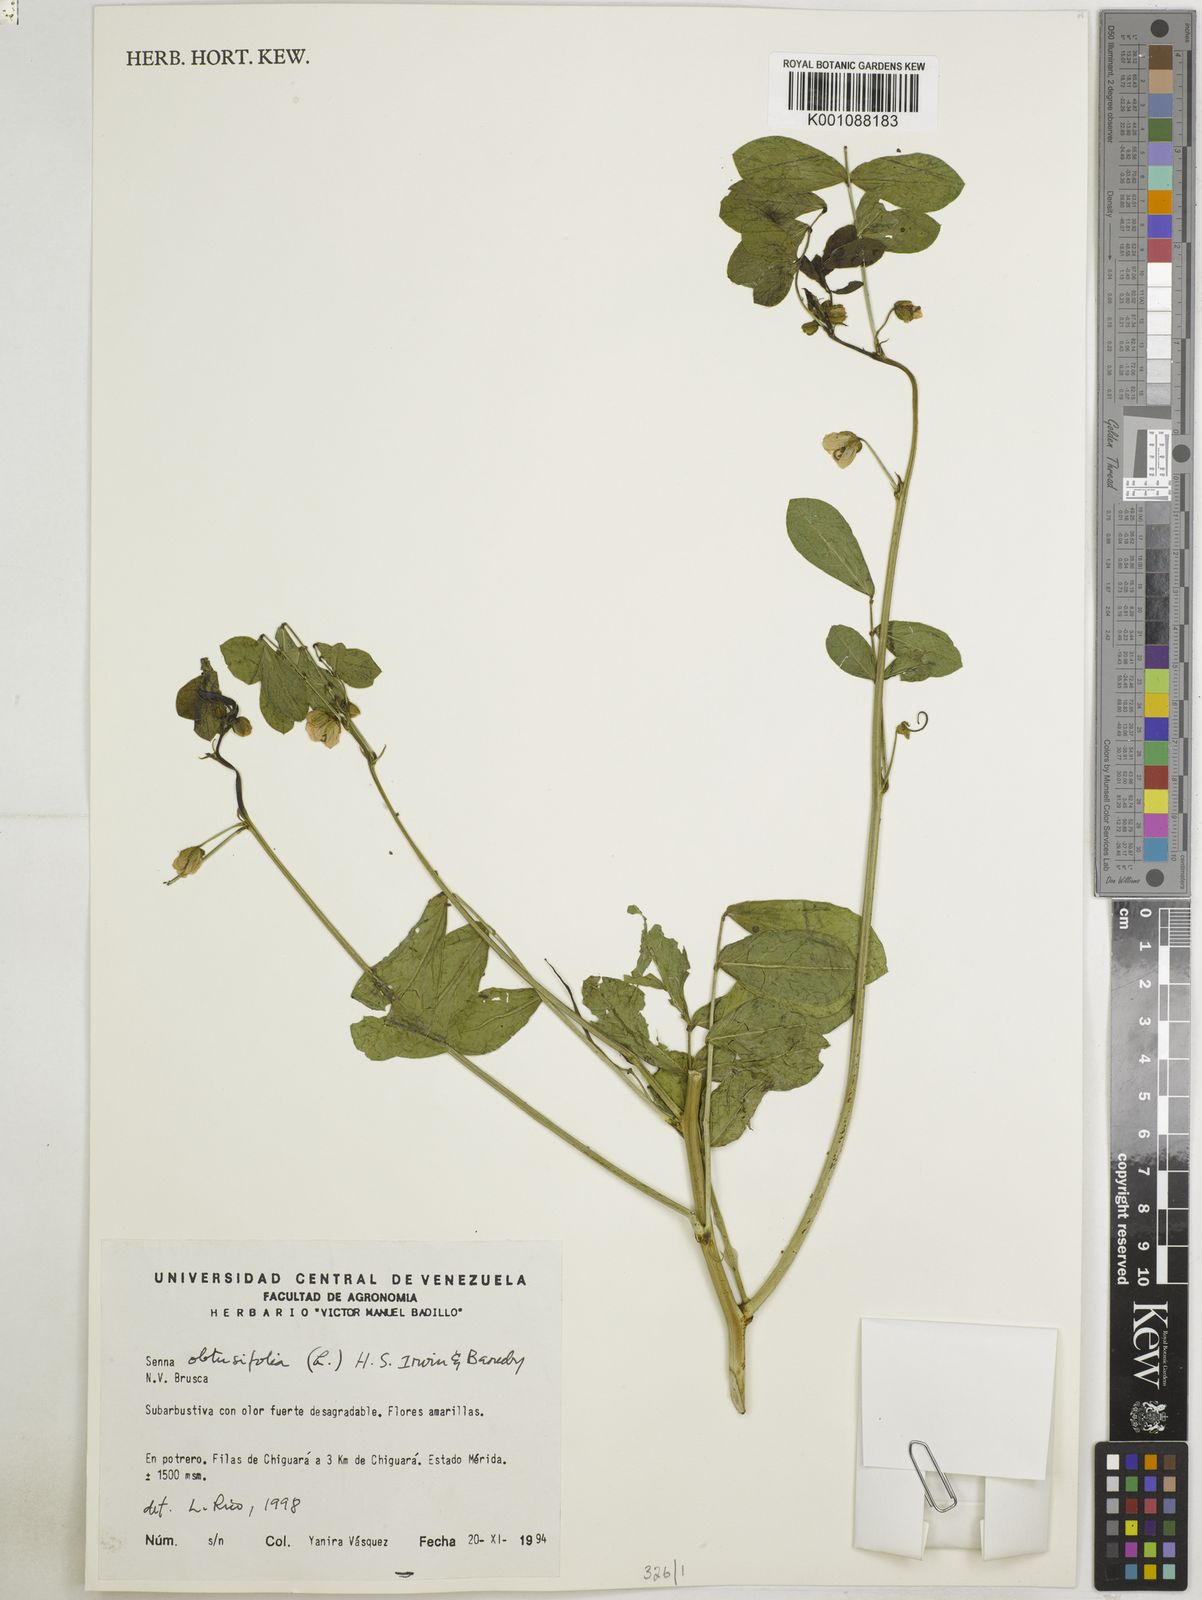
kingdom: Plantae
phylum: Tracheophyta
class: Magnoliopsida
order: Fabales
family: Fabaceae
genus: Senna
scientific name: Senna obtusifolia
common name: Java-bean
